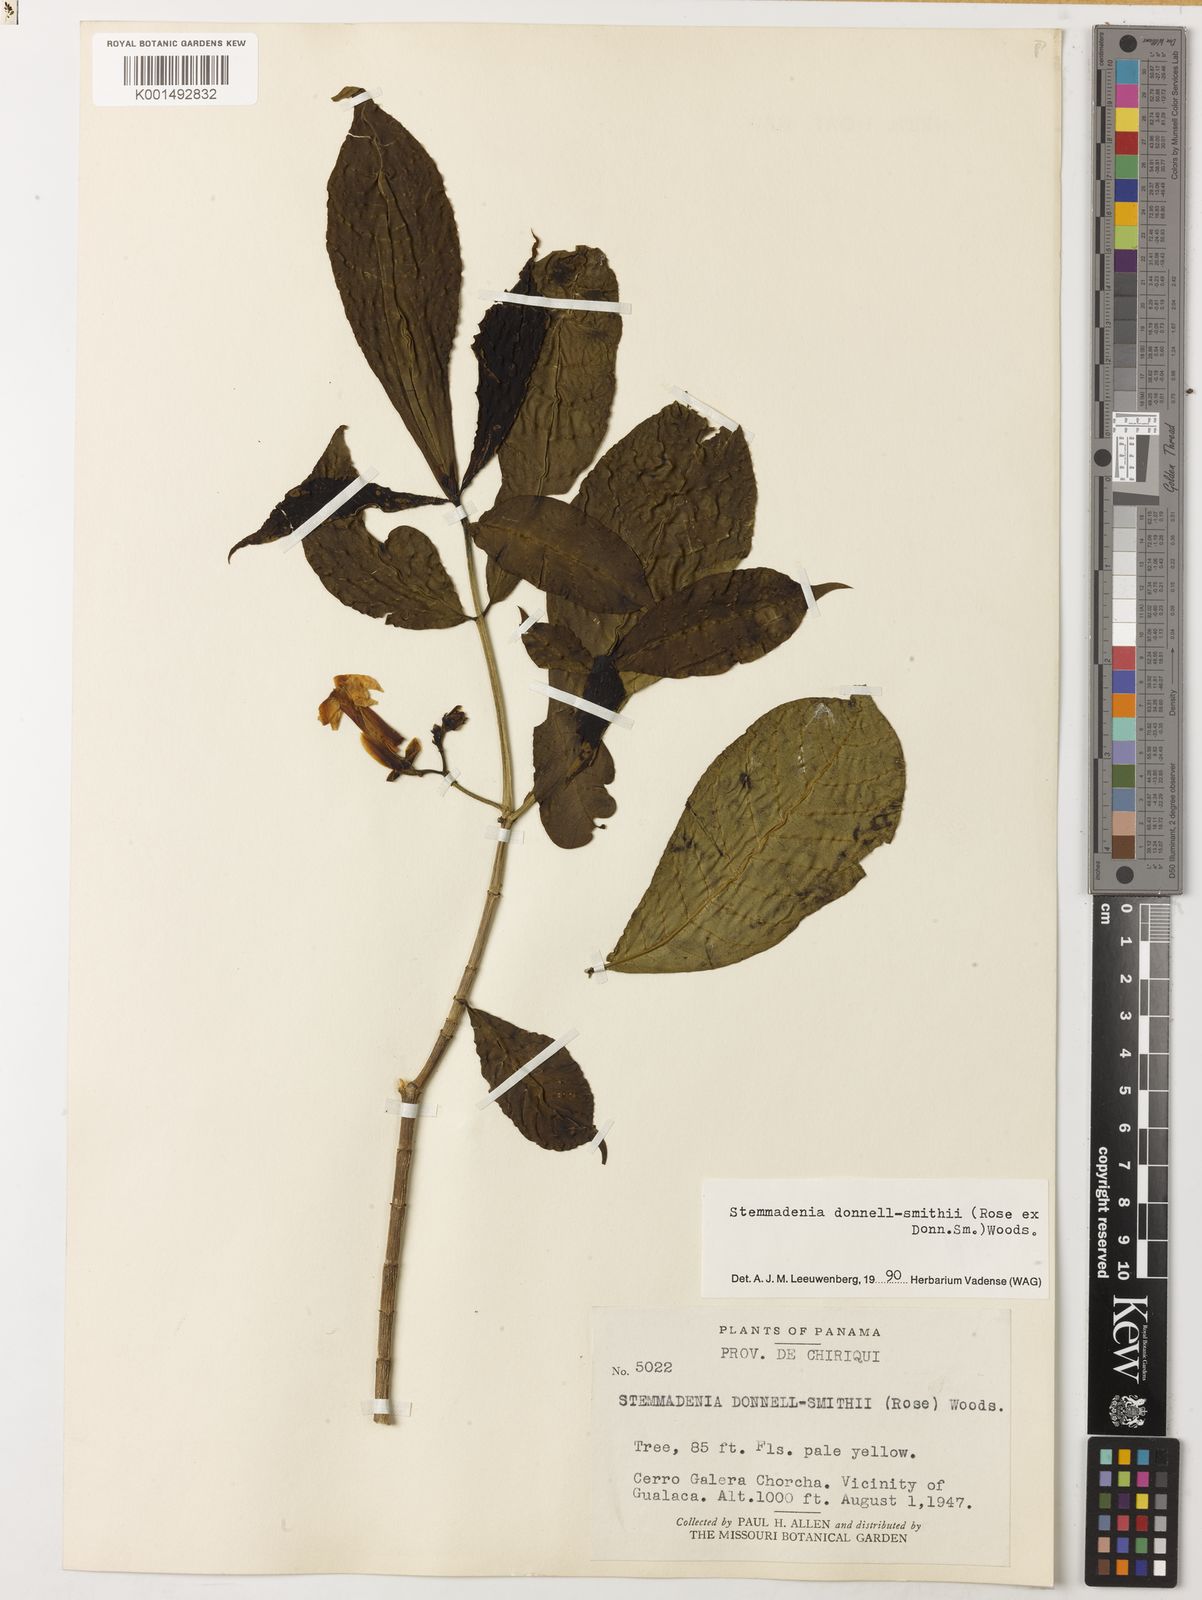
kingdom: Plantae
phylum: Tracheophyta
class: Magnoliopsida
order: Gentianales
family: Apocynaceae
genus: Tabernaemontana
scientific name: Tabernaemontana donnell-smithii
